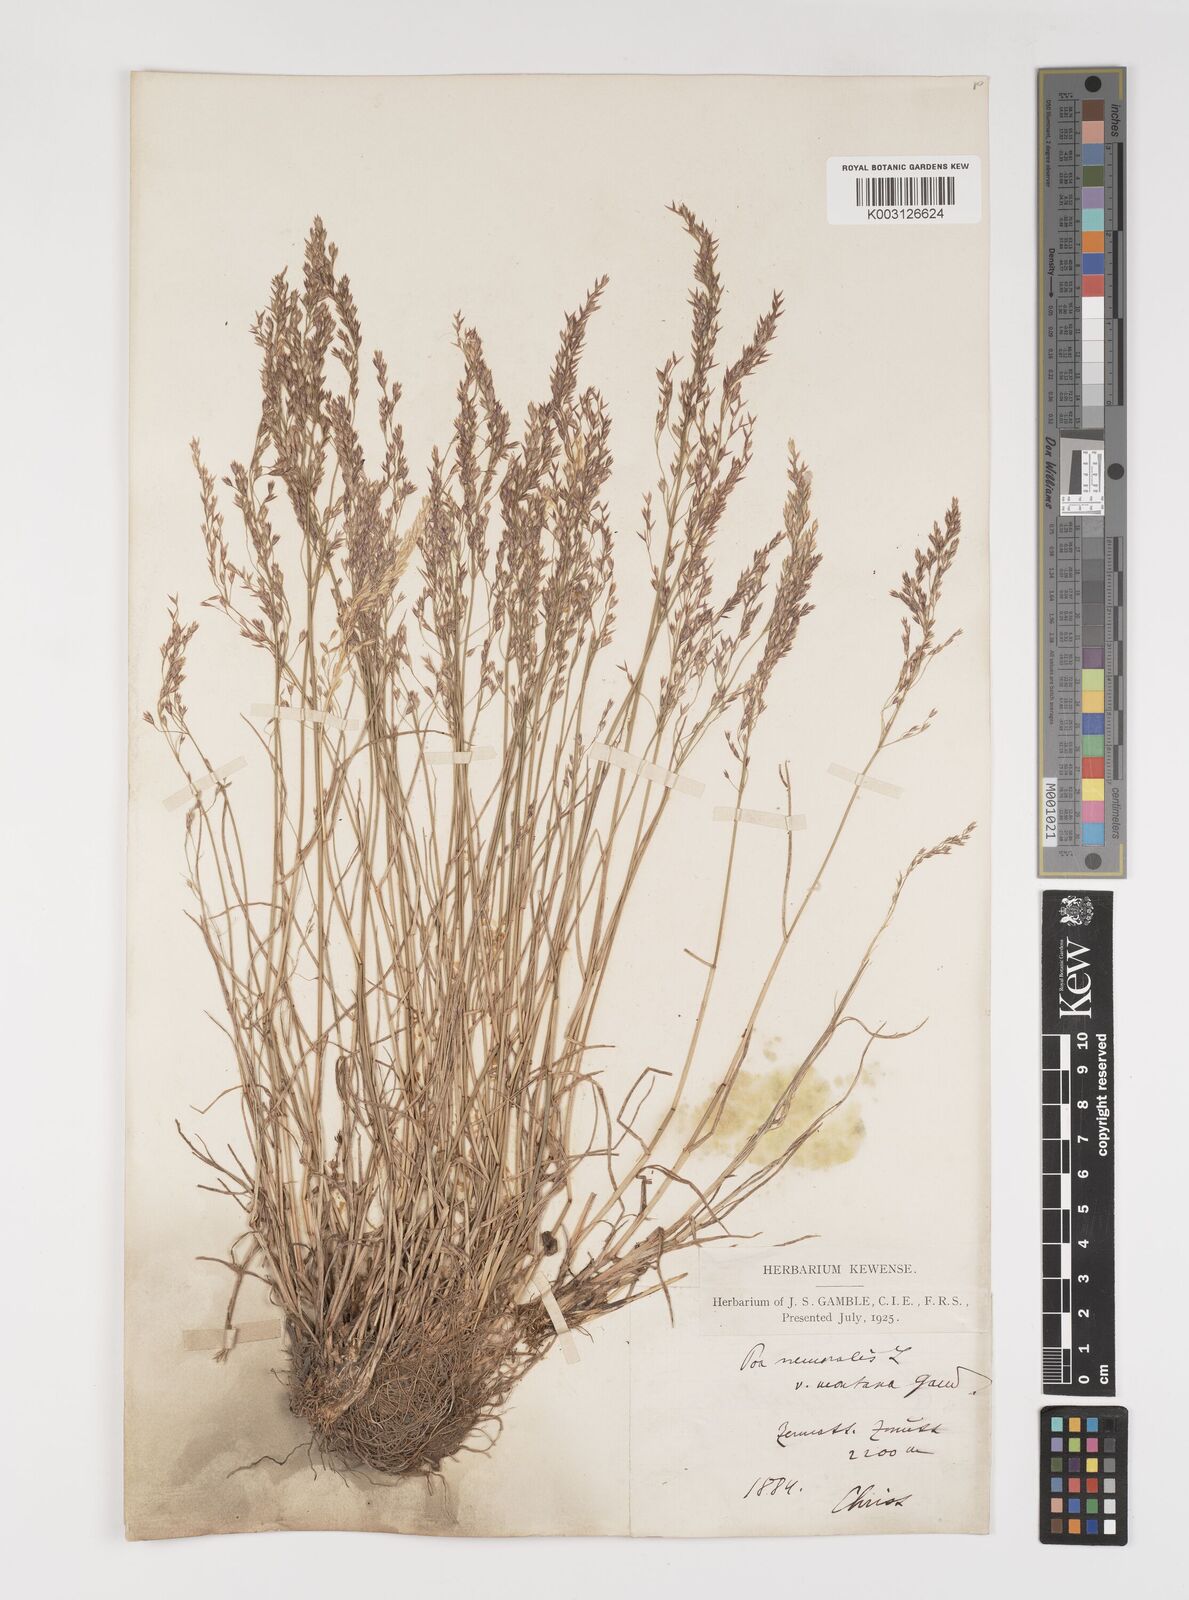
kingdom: Plantae
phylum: Tracheophyta
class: Liliopsida
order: Poales
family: Poaceae
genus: Poa
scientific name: Poa nemoralis
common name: Wood bluegrass
